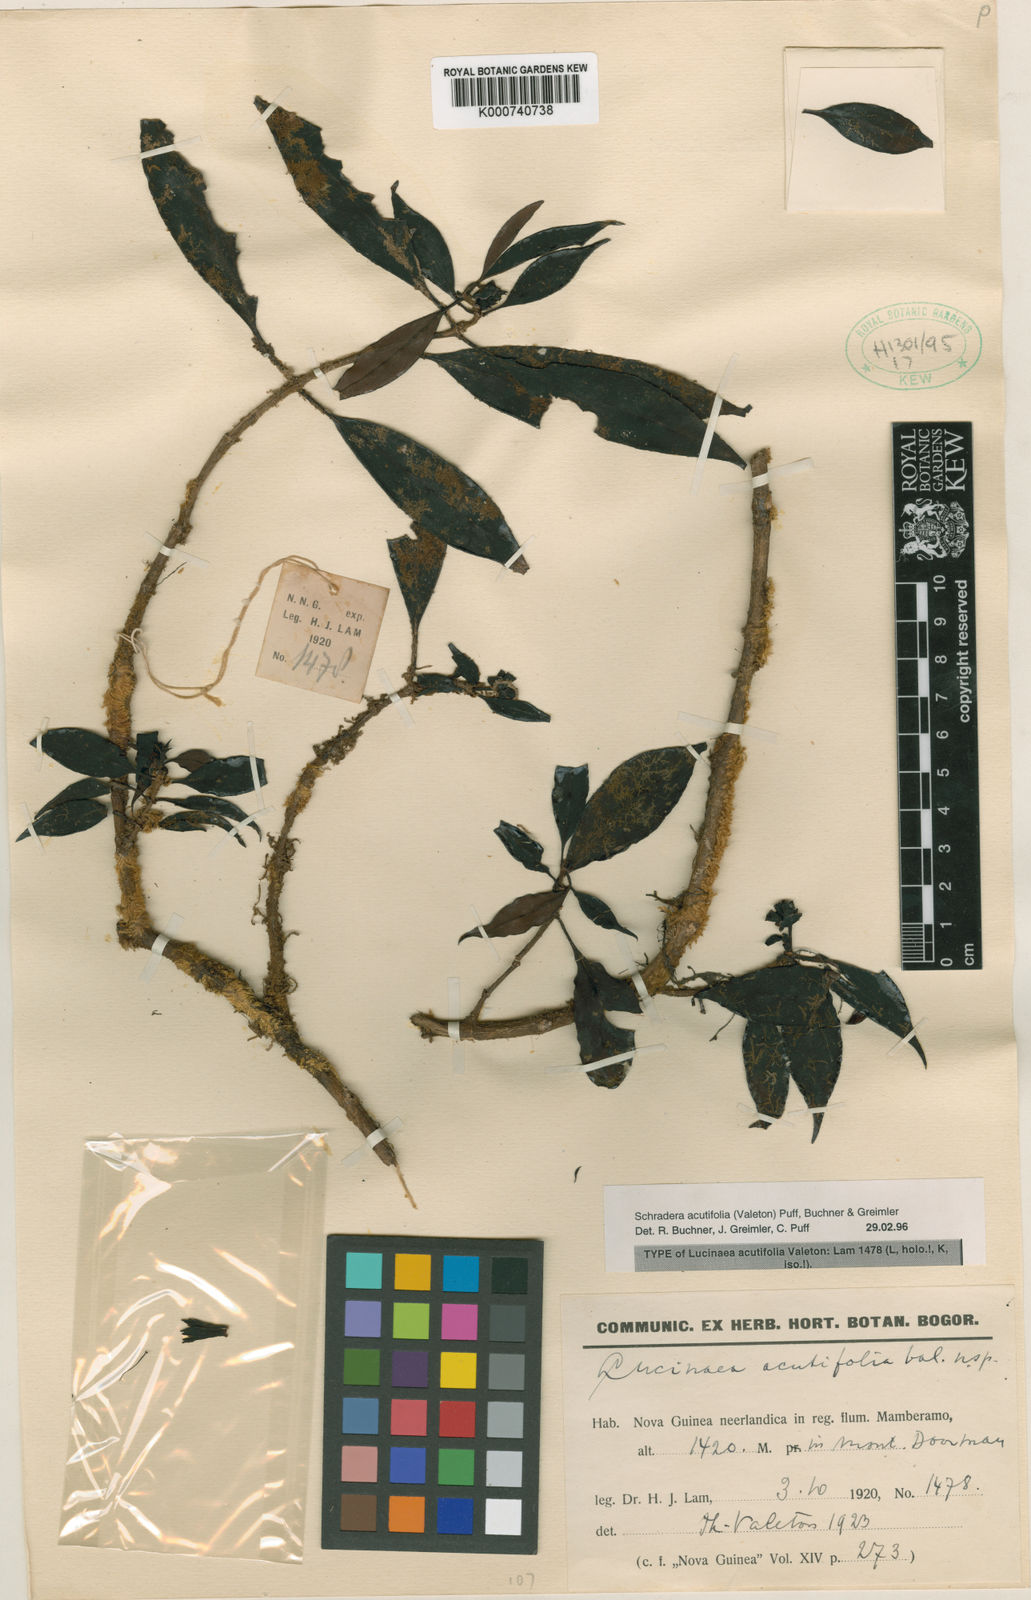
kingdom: Plantae
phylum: Tracheophyta
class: Magnoliopsida
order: Gentianales
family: Rubiaceae
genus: Schradera
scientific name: Schradera acutifolia
